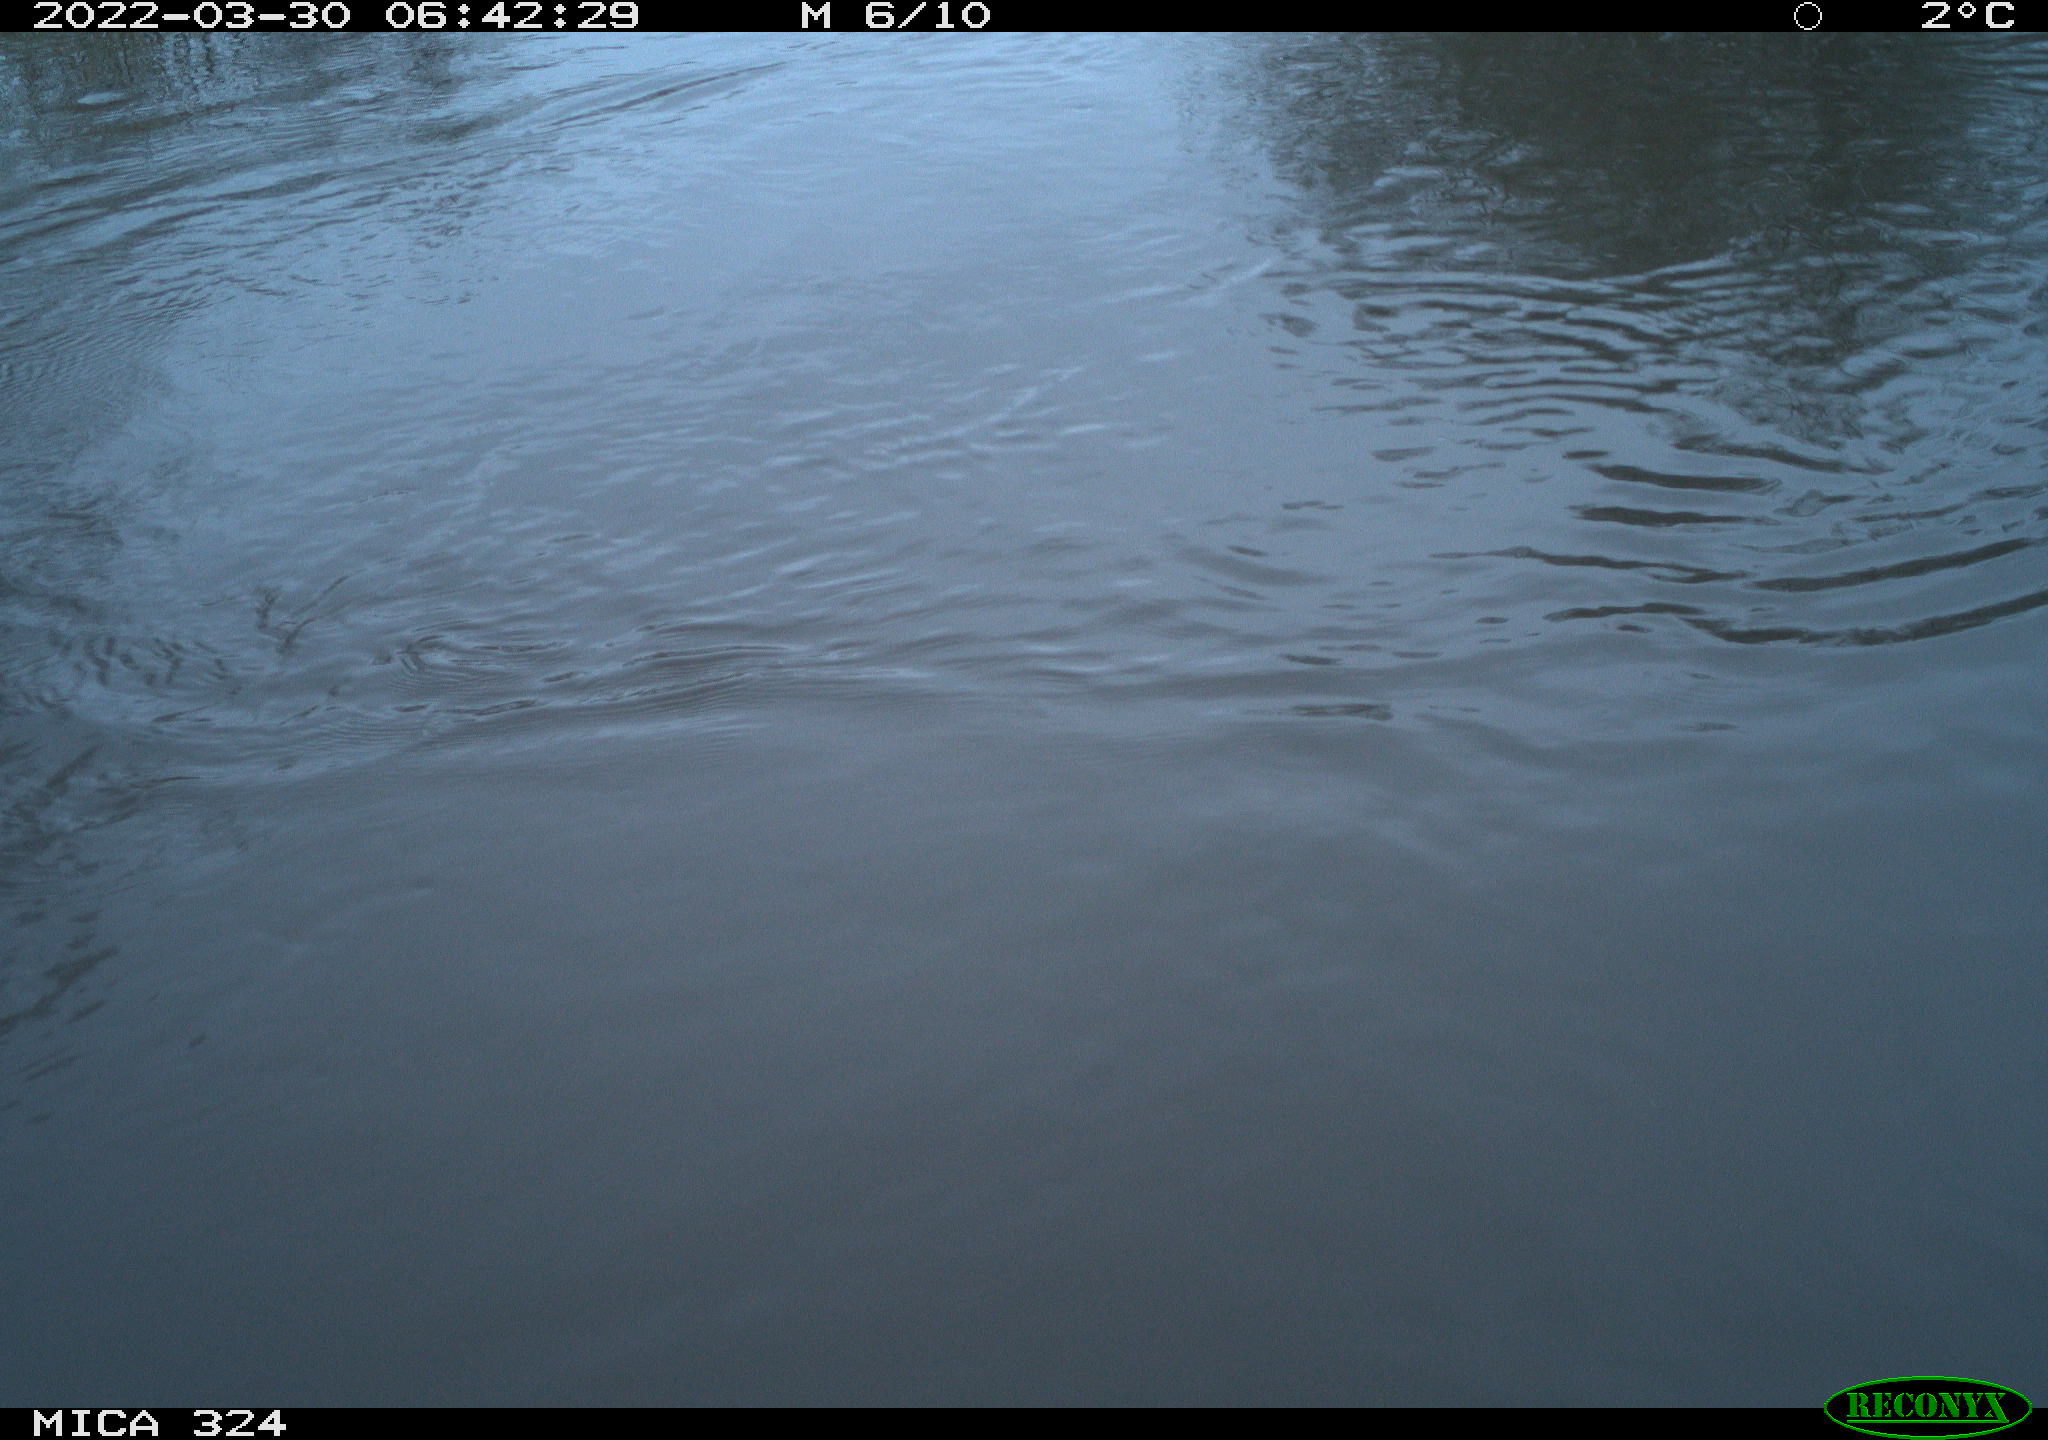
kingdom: Animalia
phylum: Chordata
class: Aves
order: Gruiformes
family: Rallidae
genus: Gallinula
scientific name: Gallinula chloropus
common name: Common moorhen
